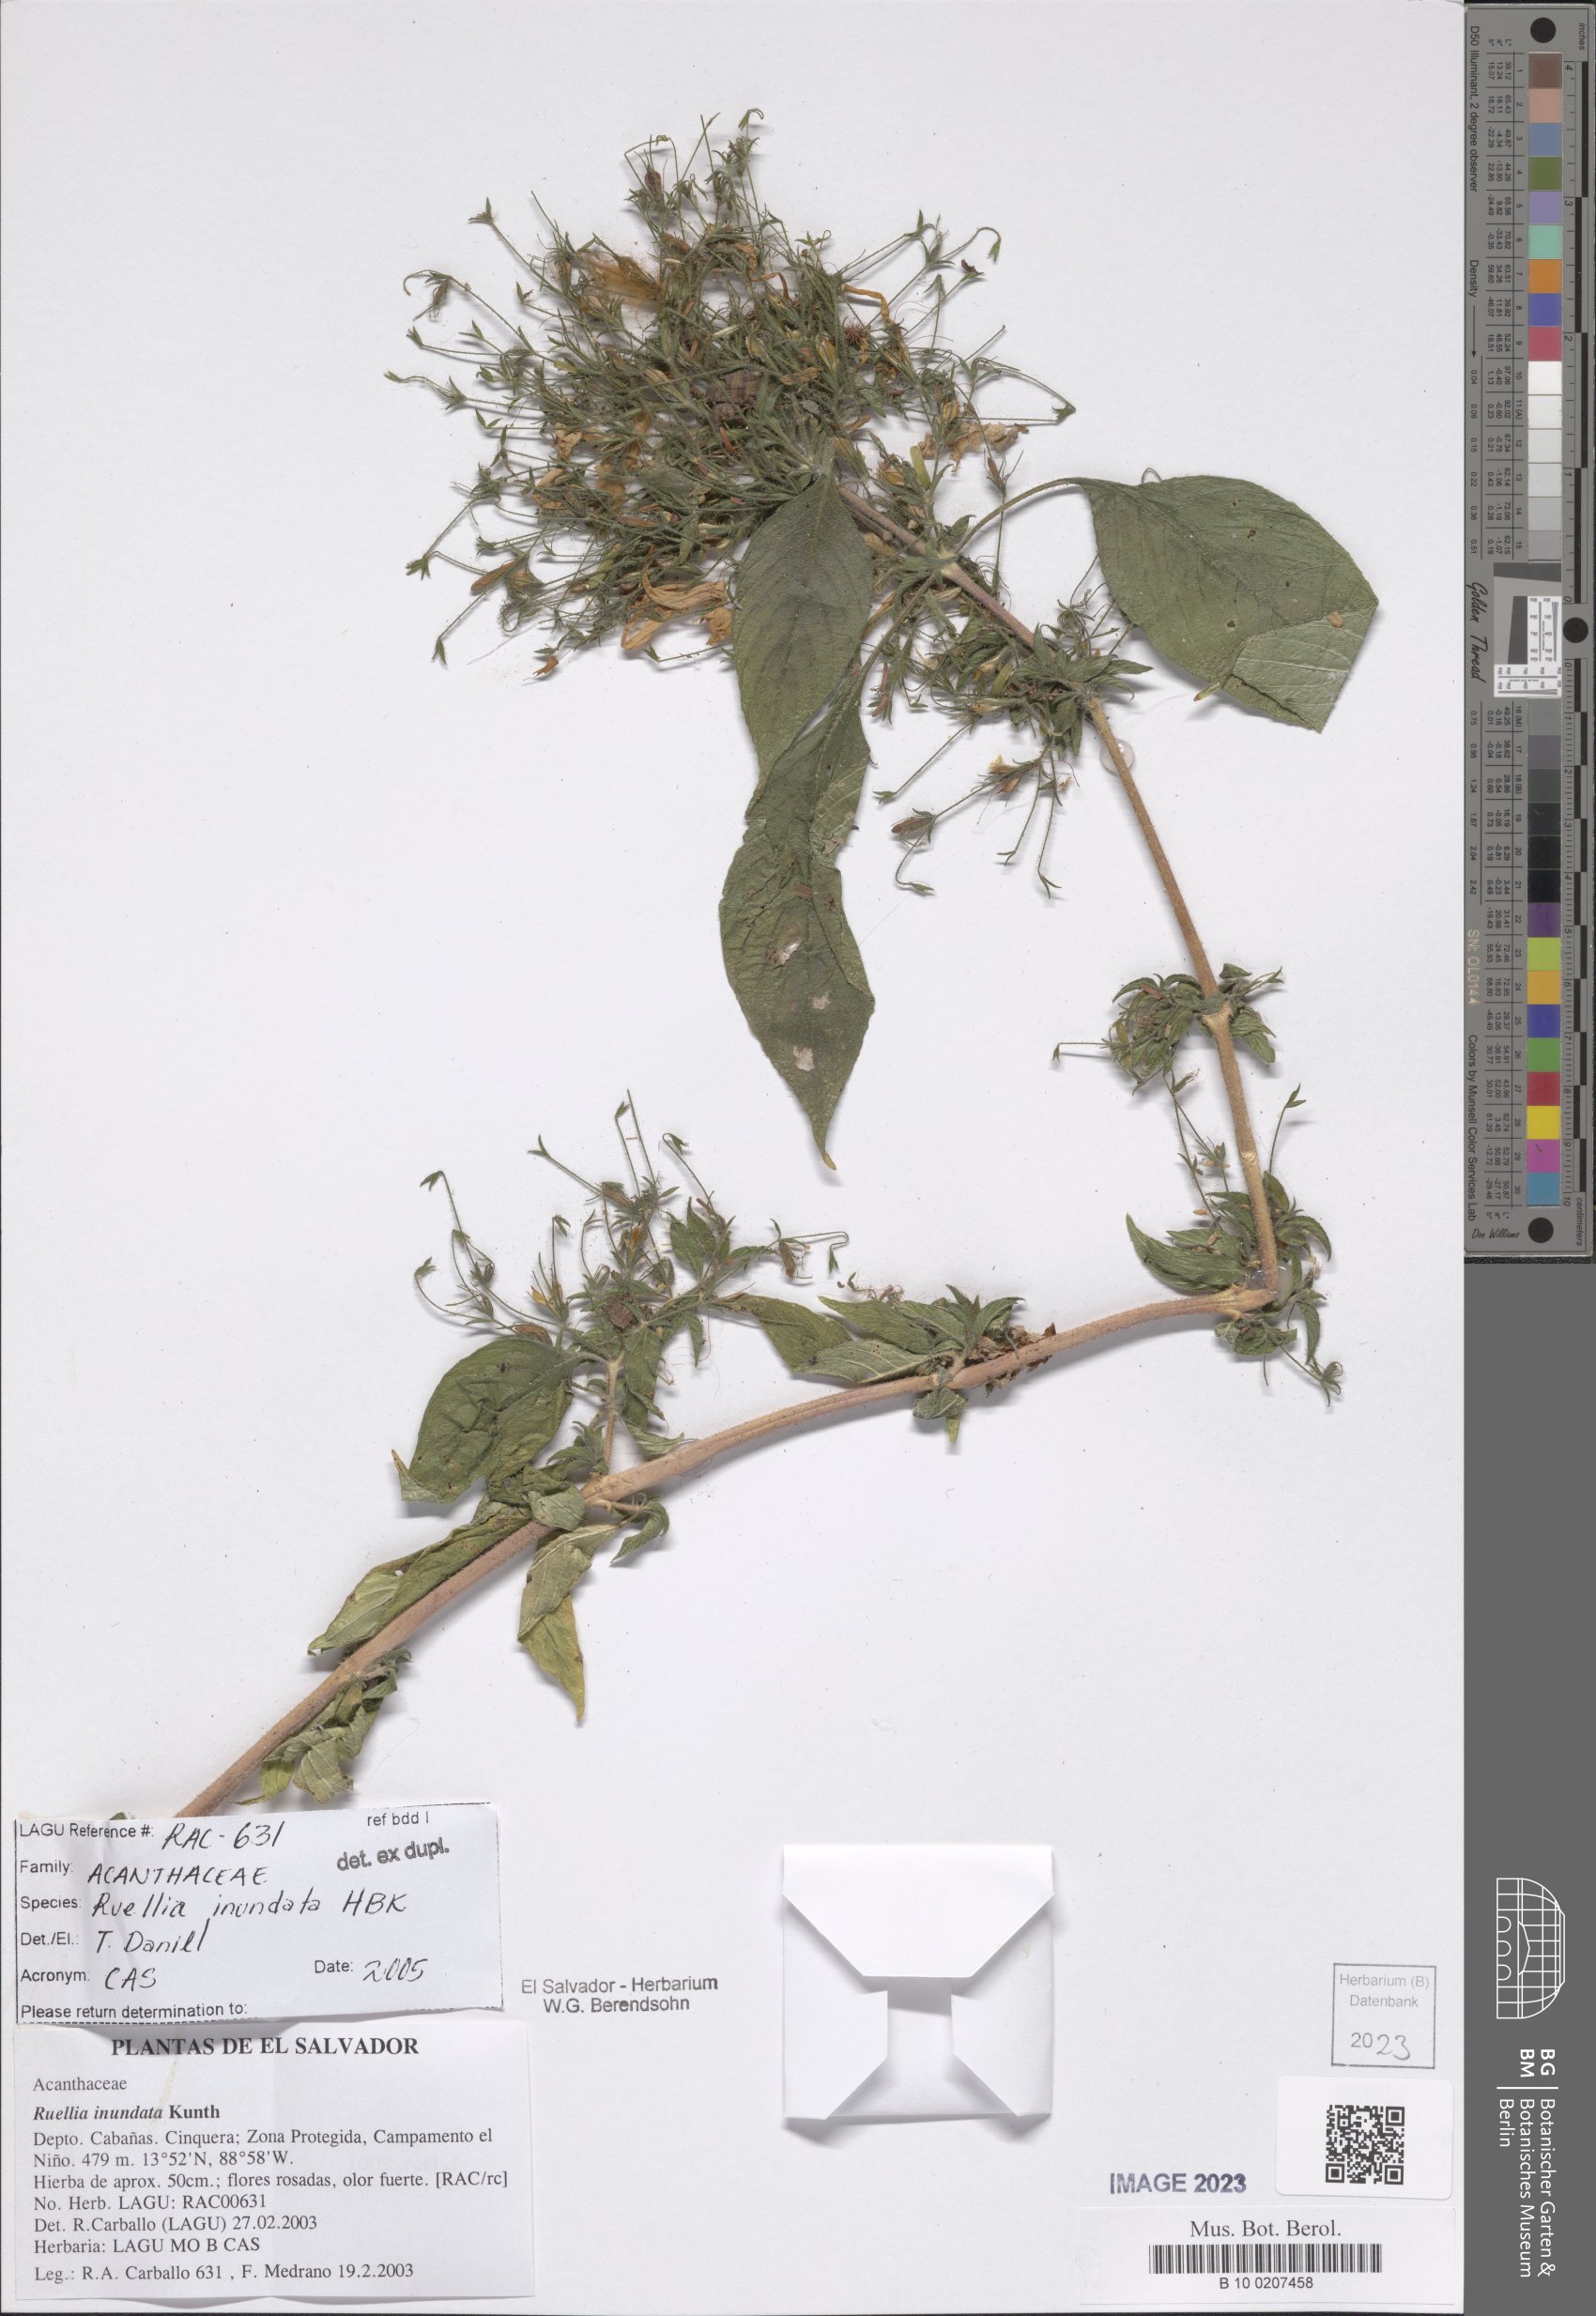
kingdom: Plantae
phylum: Tracheophyta
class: Magnoliopsida
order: Lamiales
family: Acanthaceae
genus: Ruellia
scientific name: Ruellia inundata
